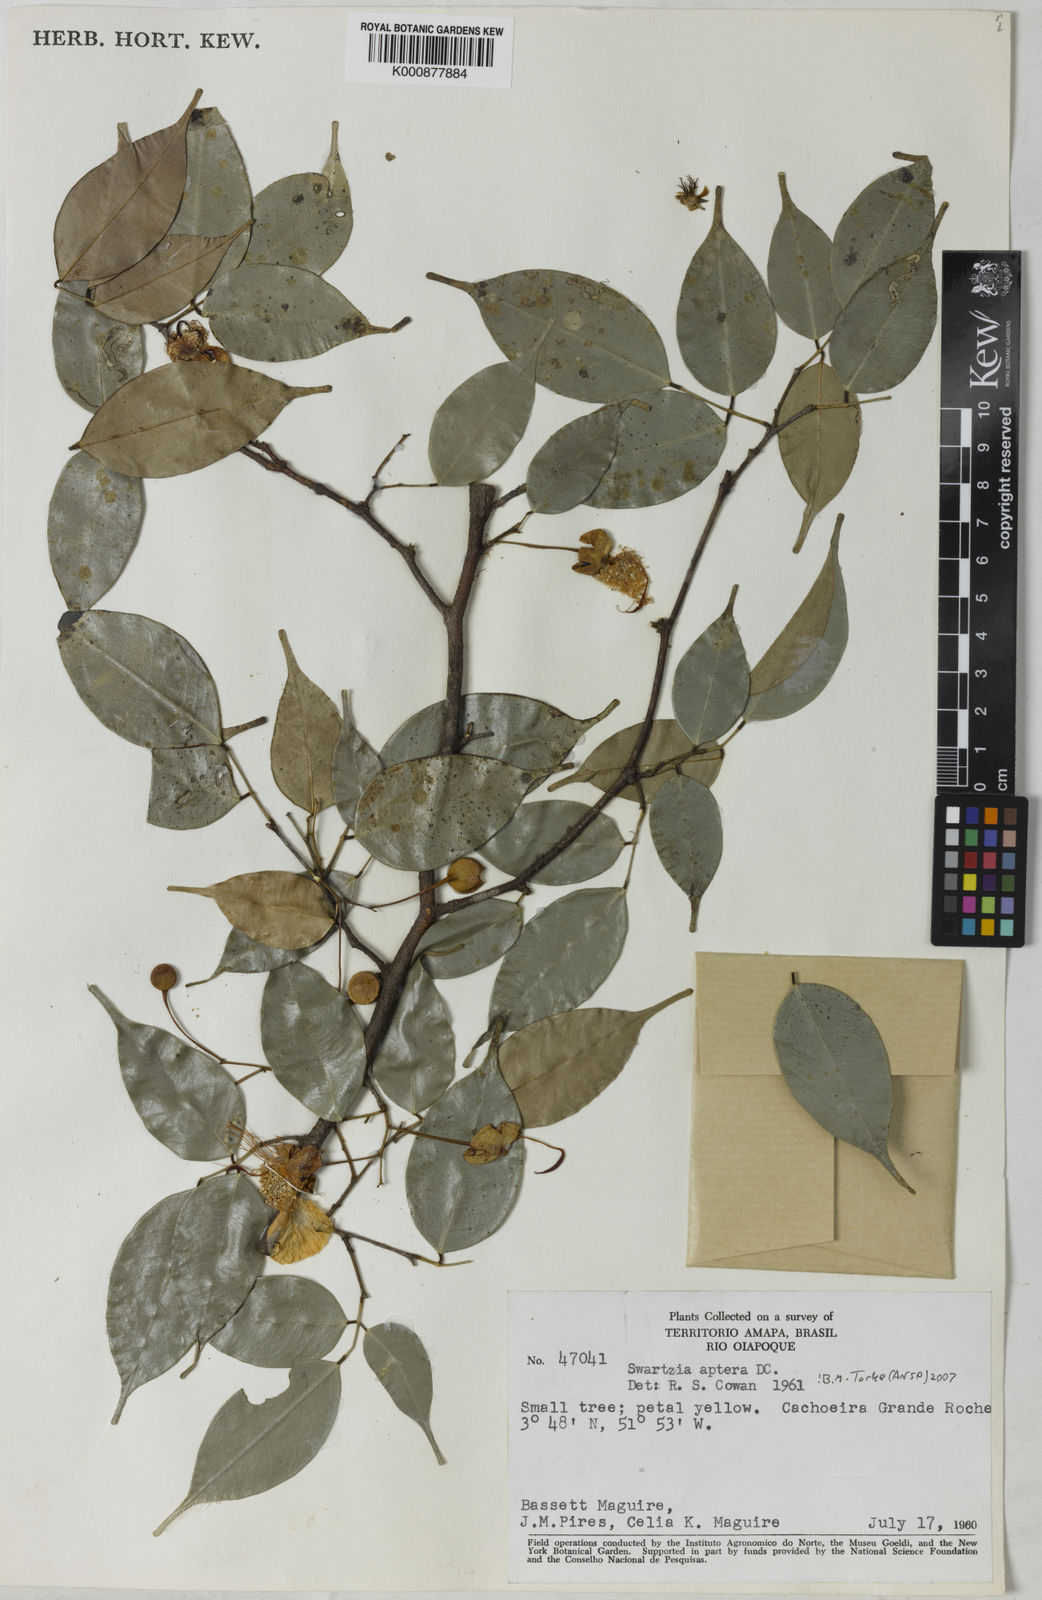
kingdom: Plantae
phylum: Tracheophyta
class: Magnoliopsida
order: Fabales
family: Fabaceae
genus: Swartzia
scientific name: Swartzia aptera
